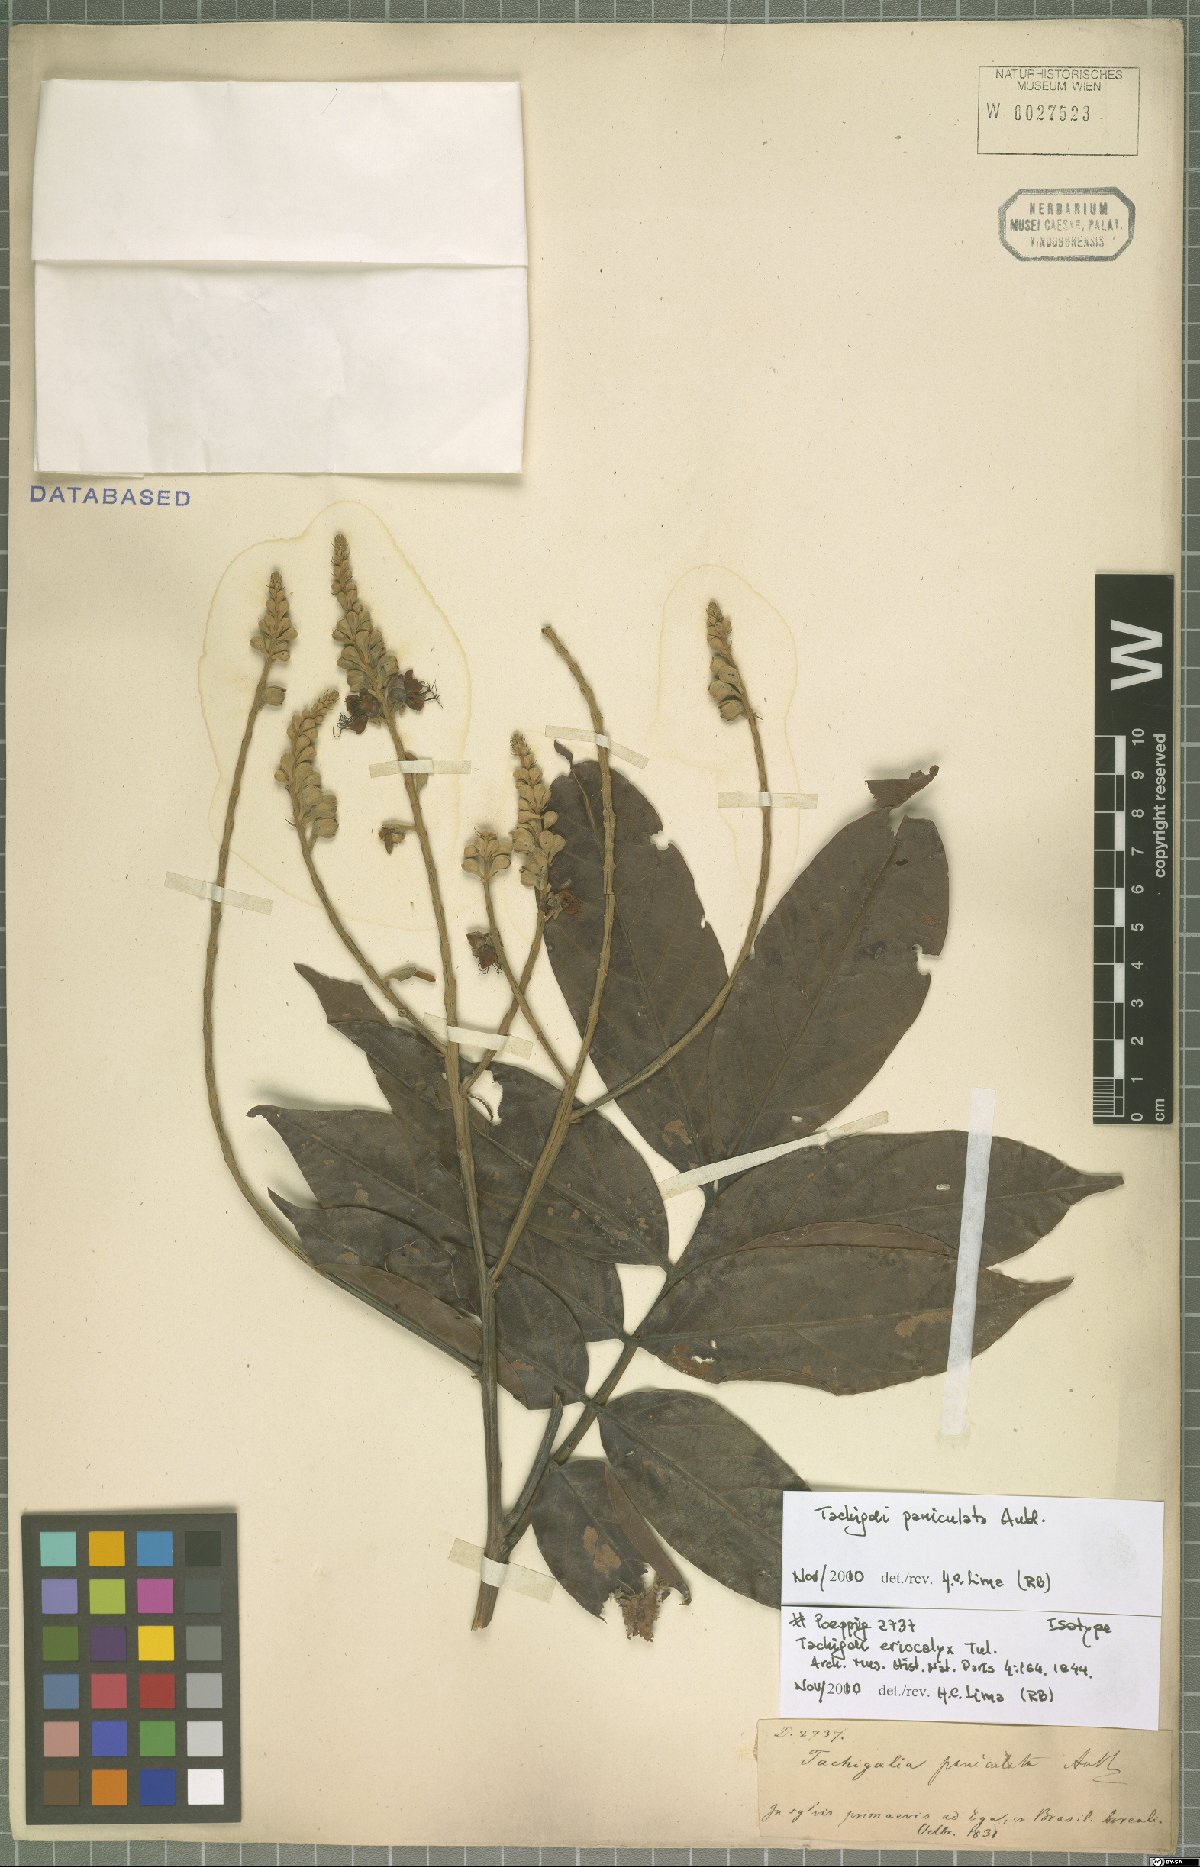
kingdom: Plantae
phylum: Tracheophyta
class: Magnoliopsida
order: Fabales
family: Fabaceae
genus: Tachigali
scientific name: Tachigali paniculata
